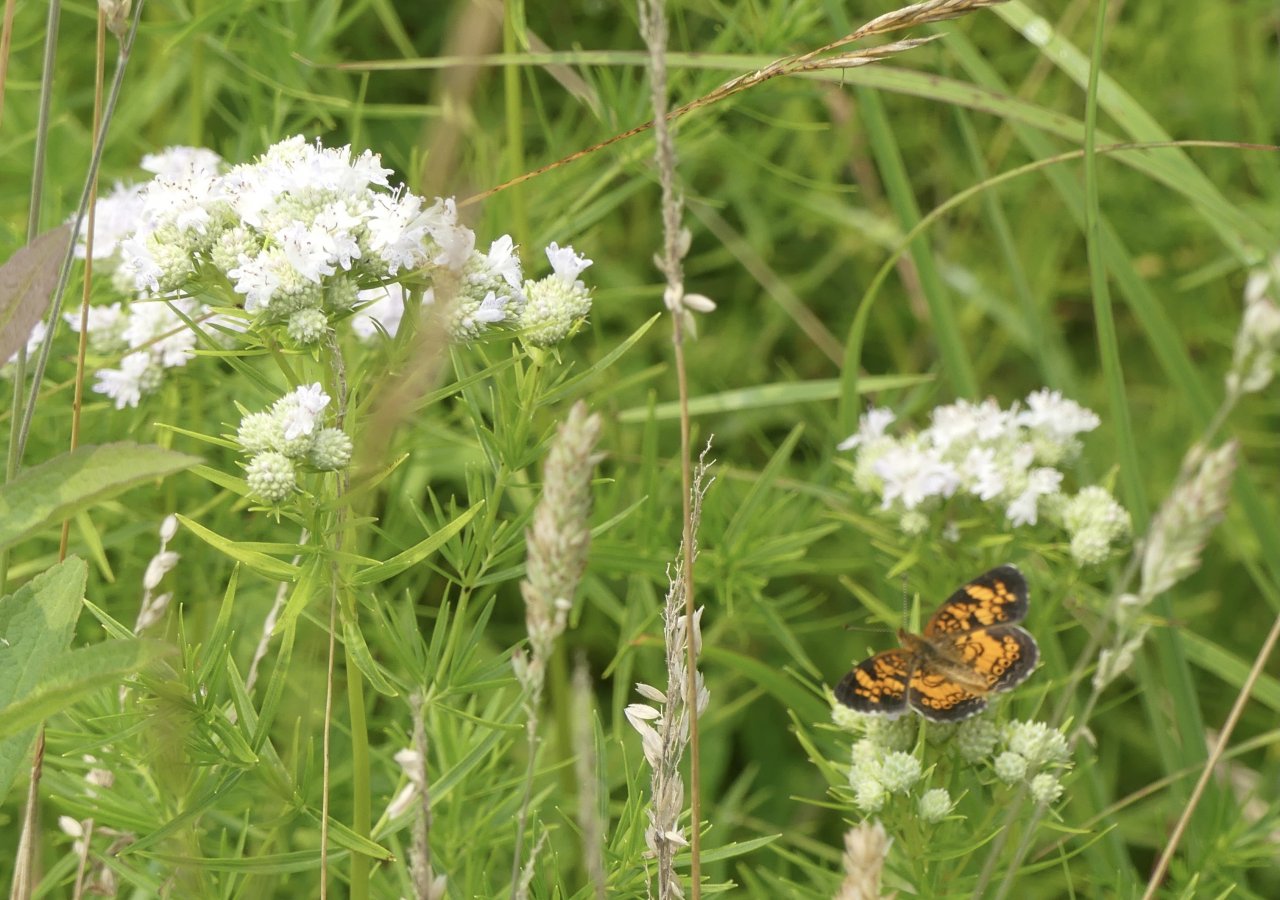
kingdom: Animalia
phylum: Arthropoda
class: Insecta
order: Lepidoptera
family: Nymphalidae
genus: Phyciodes
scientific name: Phyciodes tharos
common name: Pearl Crescent
